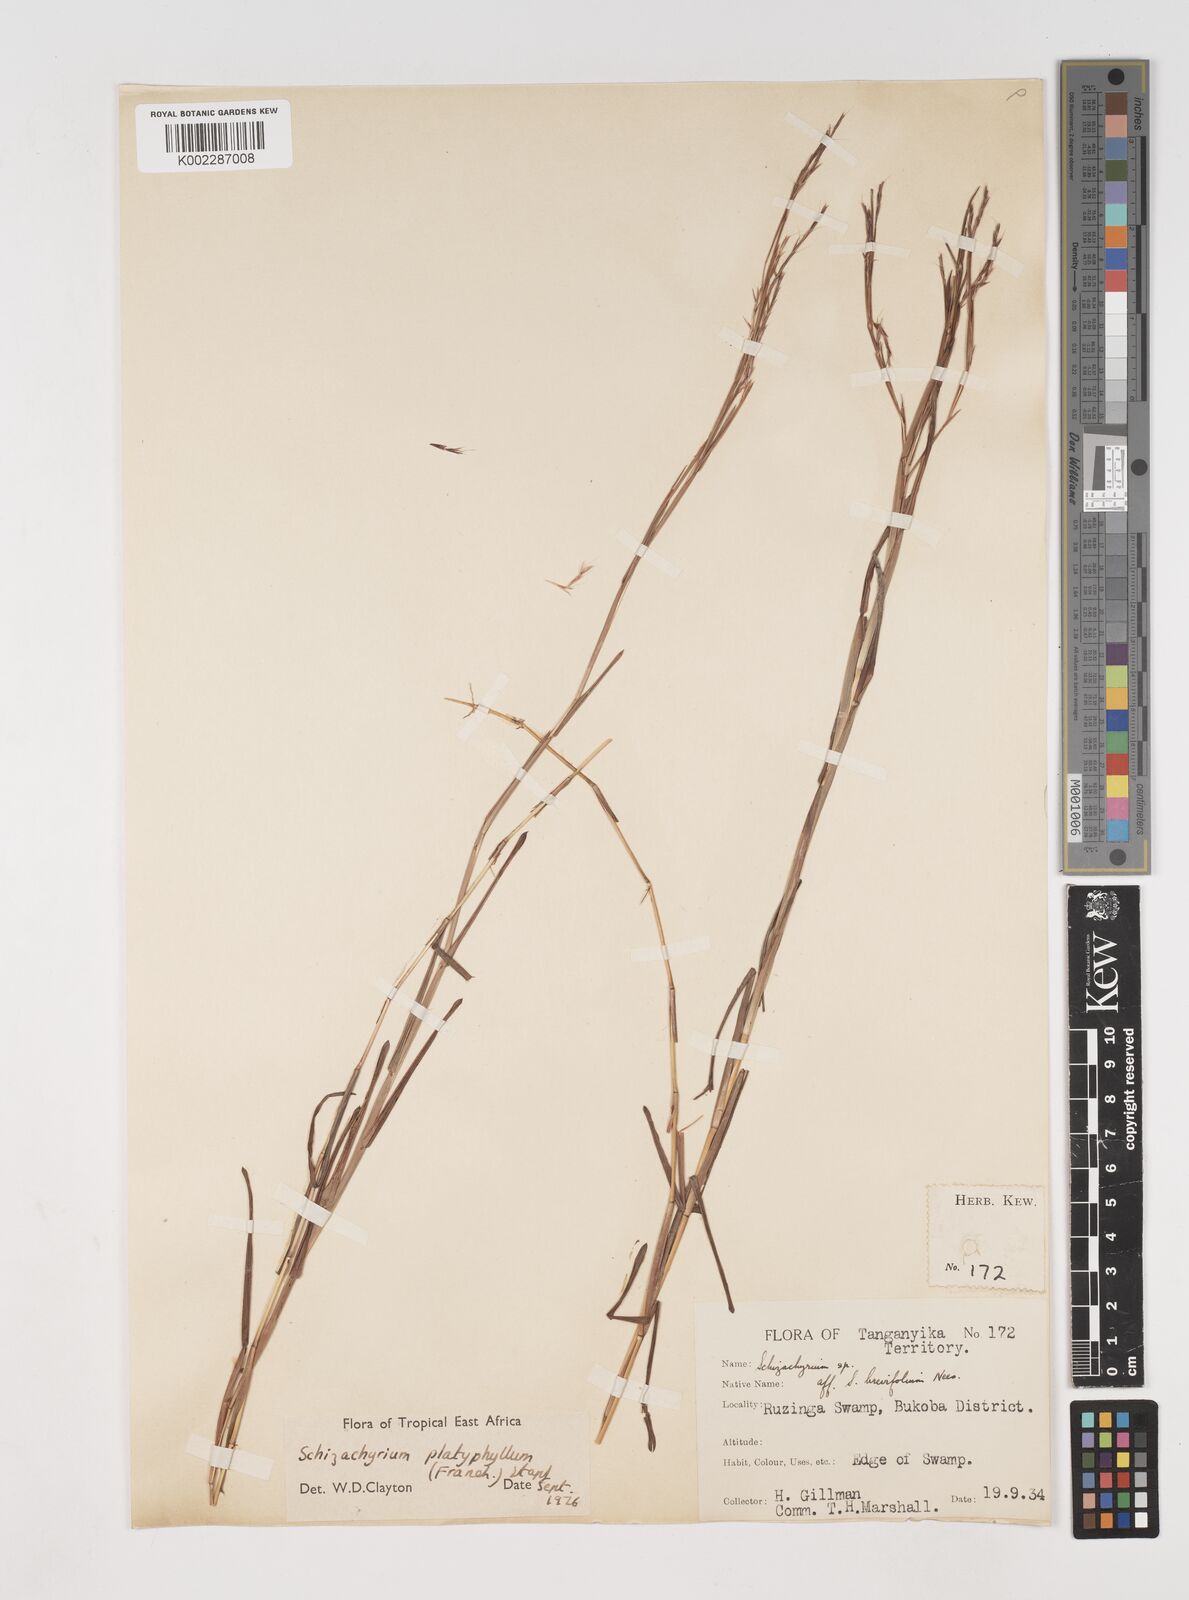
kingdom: Plantae
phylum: Tracheophyta
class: Liliopsida
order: Poales
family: Poaceae
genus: Schizachyrium
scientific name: Schizachyrium platyphyllum
